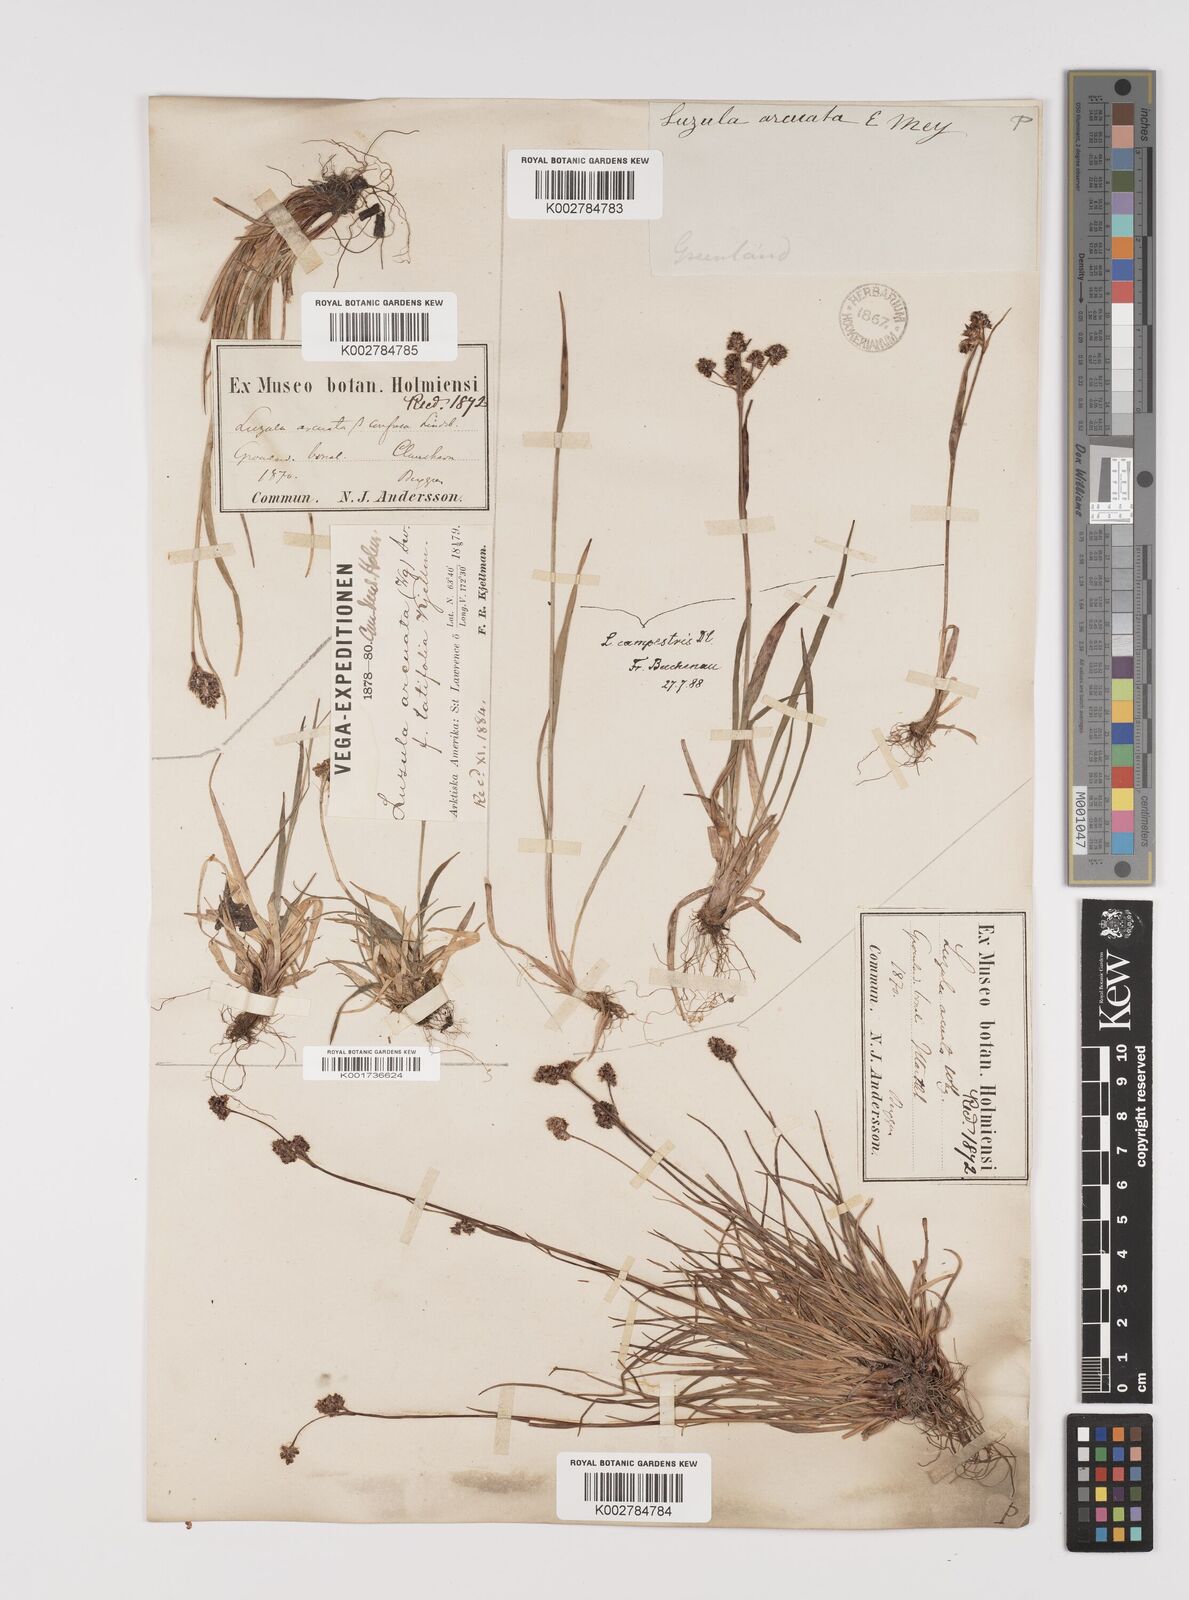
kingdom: Plantae
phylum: Tracheophyta
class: Liliopsida
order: Poales
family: Juncaceae
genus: Luzula
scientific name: Luzula confusa
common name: Northern wood rush
